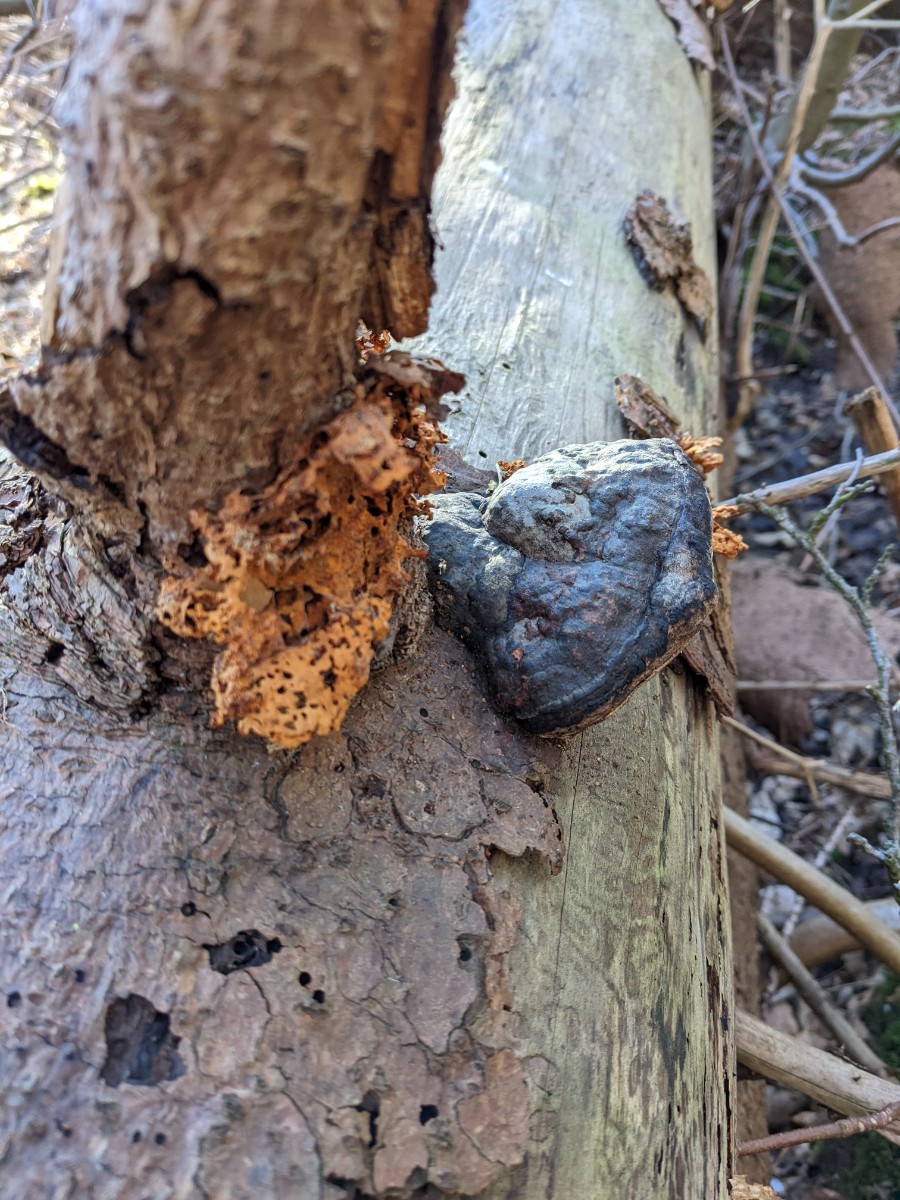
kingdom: Fungi
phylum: Basidiomycota
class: Agaricomycetes
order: Polyporales
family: Pycnoporellaceae
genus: Pycnoporellus
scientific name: Pycnoporellus fulgens
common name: flammeporesvamp
